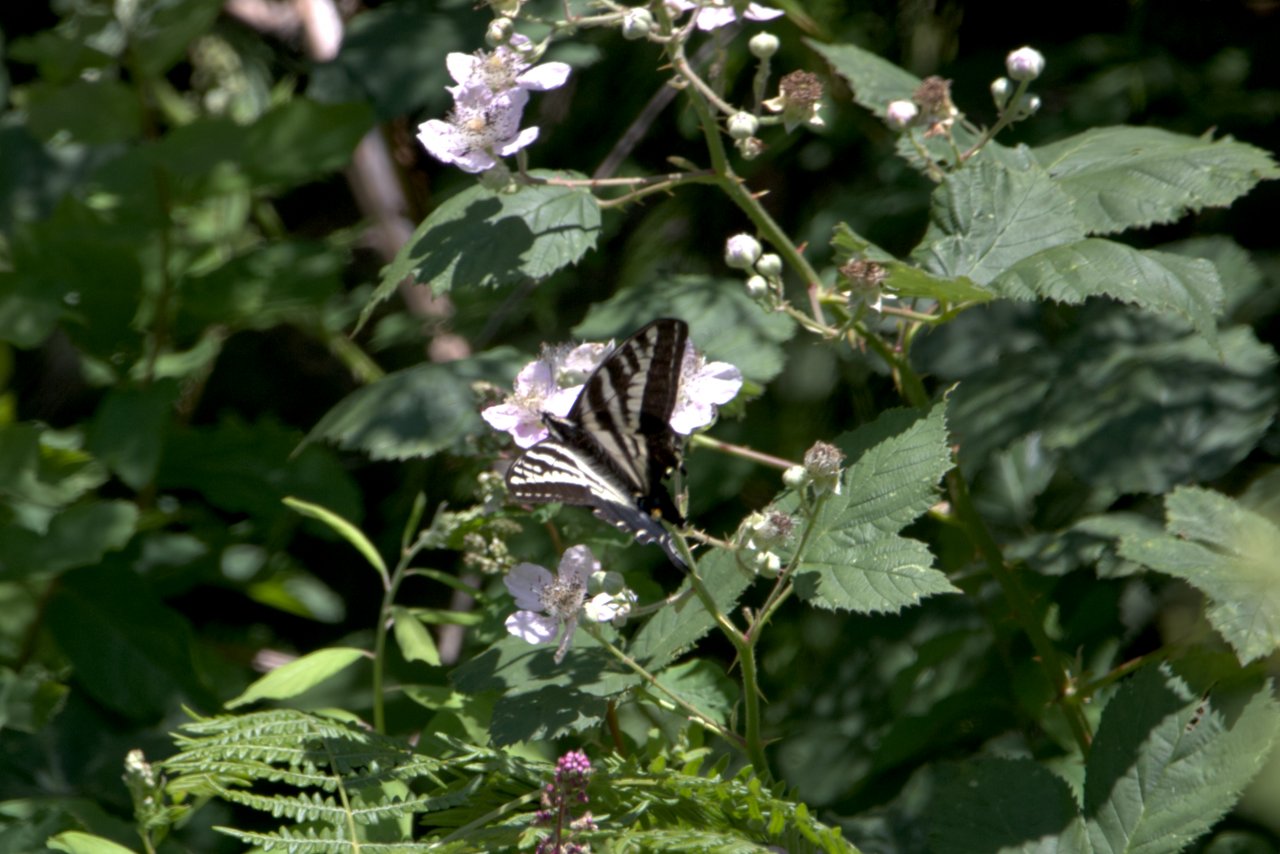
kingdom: Animalia
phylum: Arthropoda
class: Insecta
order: Lepidoptera
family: Papilionidae
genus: Pterourus
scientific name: Pterourus eurymedon
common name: Pale Swallowtail
